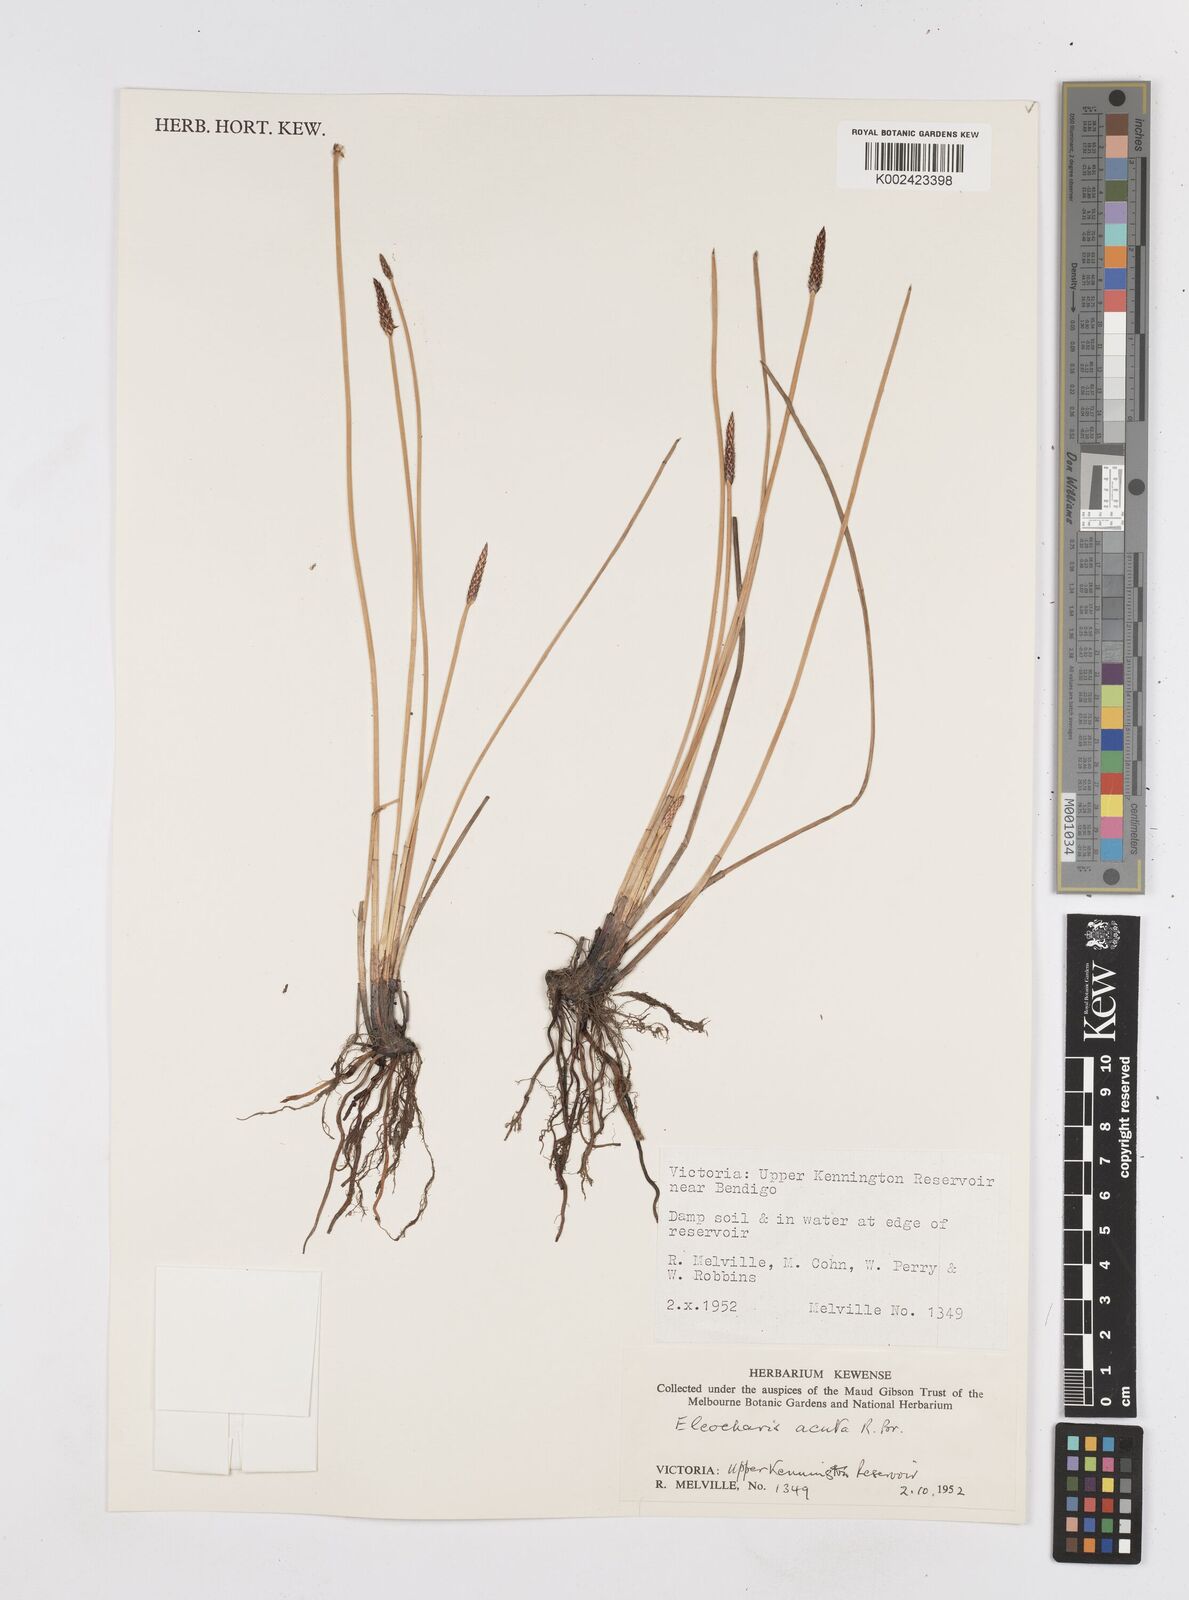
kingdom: Plantae
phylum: Tracheophyta
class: Liliopsida
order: Poales
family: Cyperaceae
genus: Eleocharis
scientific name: Eleocharis acuta
